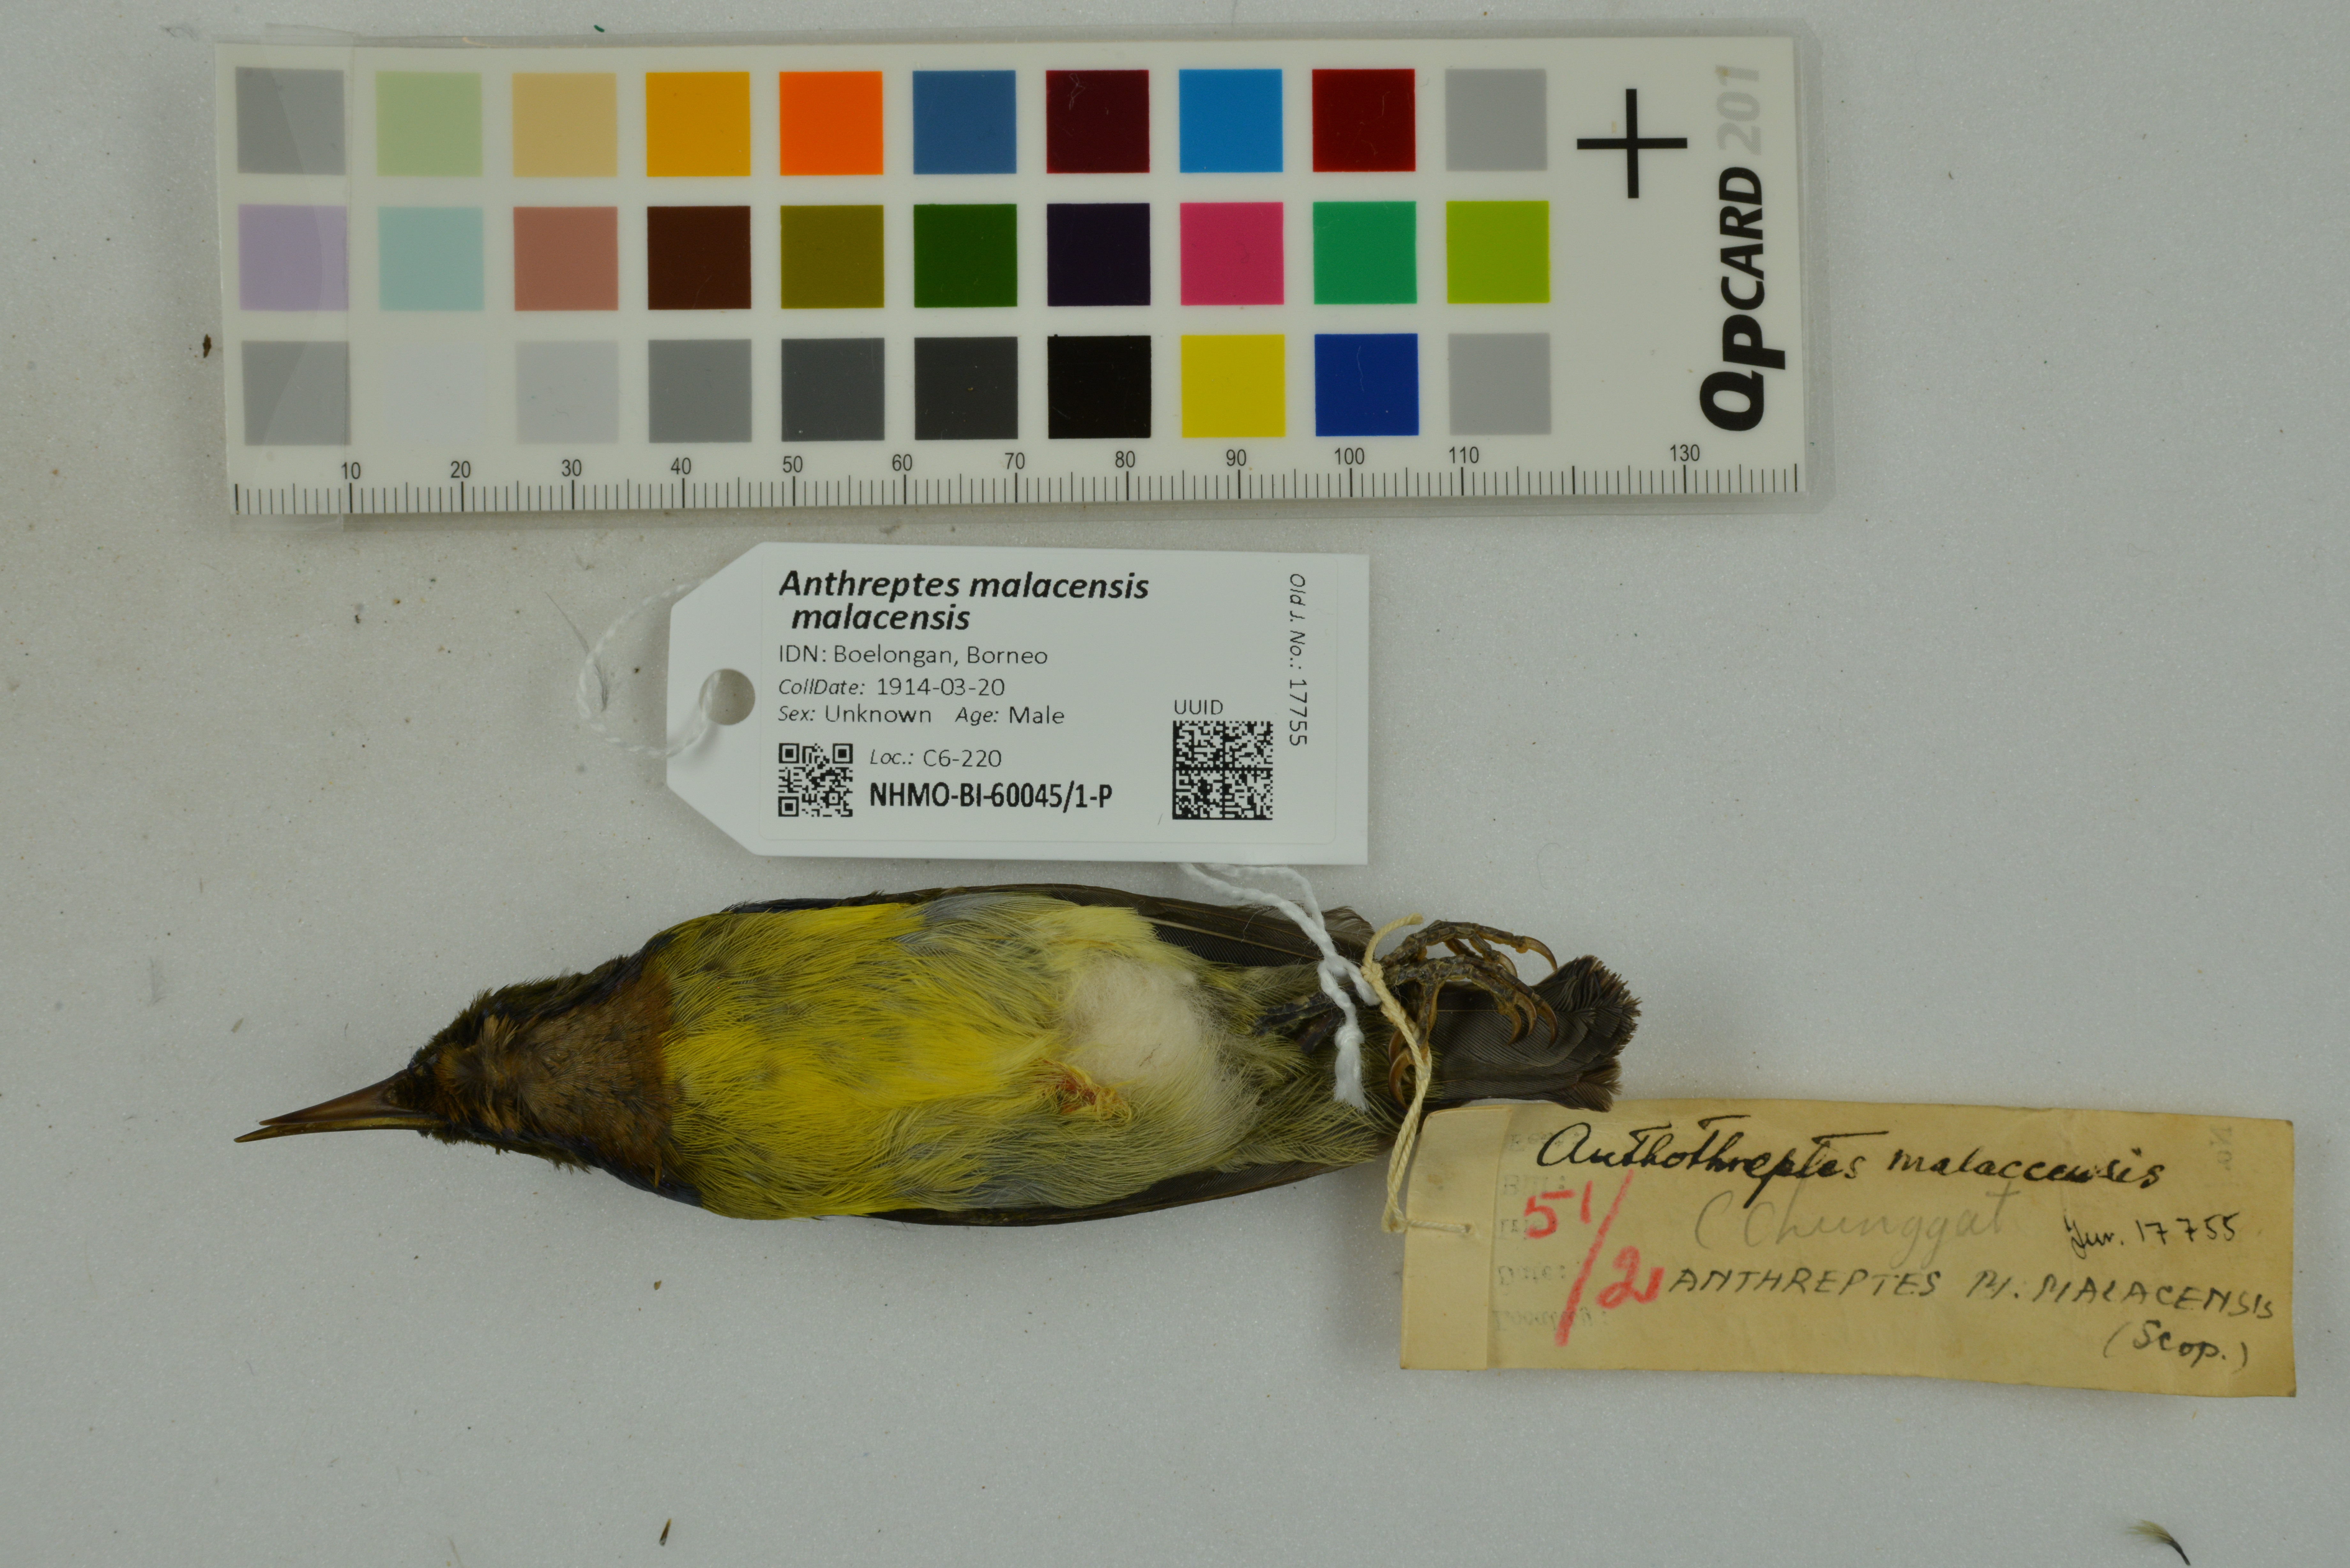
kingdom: Animalia
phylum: Chordata
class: Aves
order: Passeriformes
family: Nectariniidae
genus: Anthreptes
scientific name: Anthreptes malacensis
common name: Brown-throated sunbird
